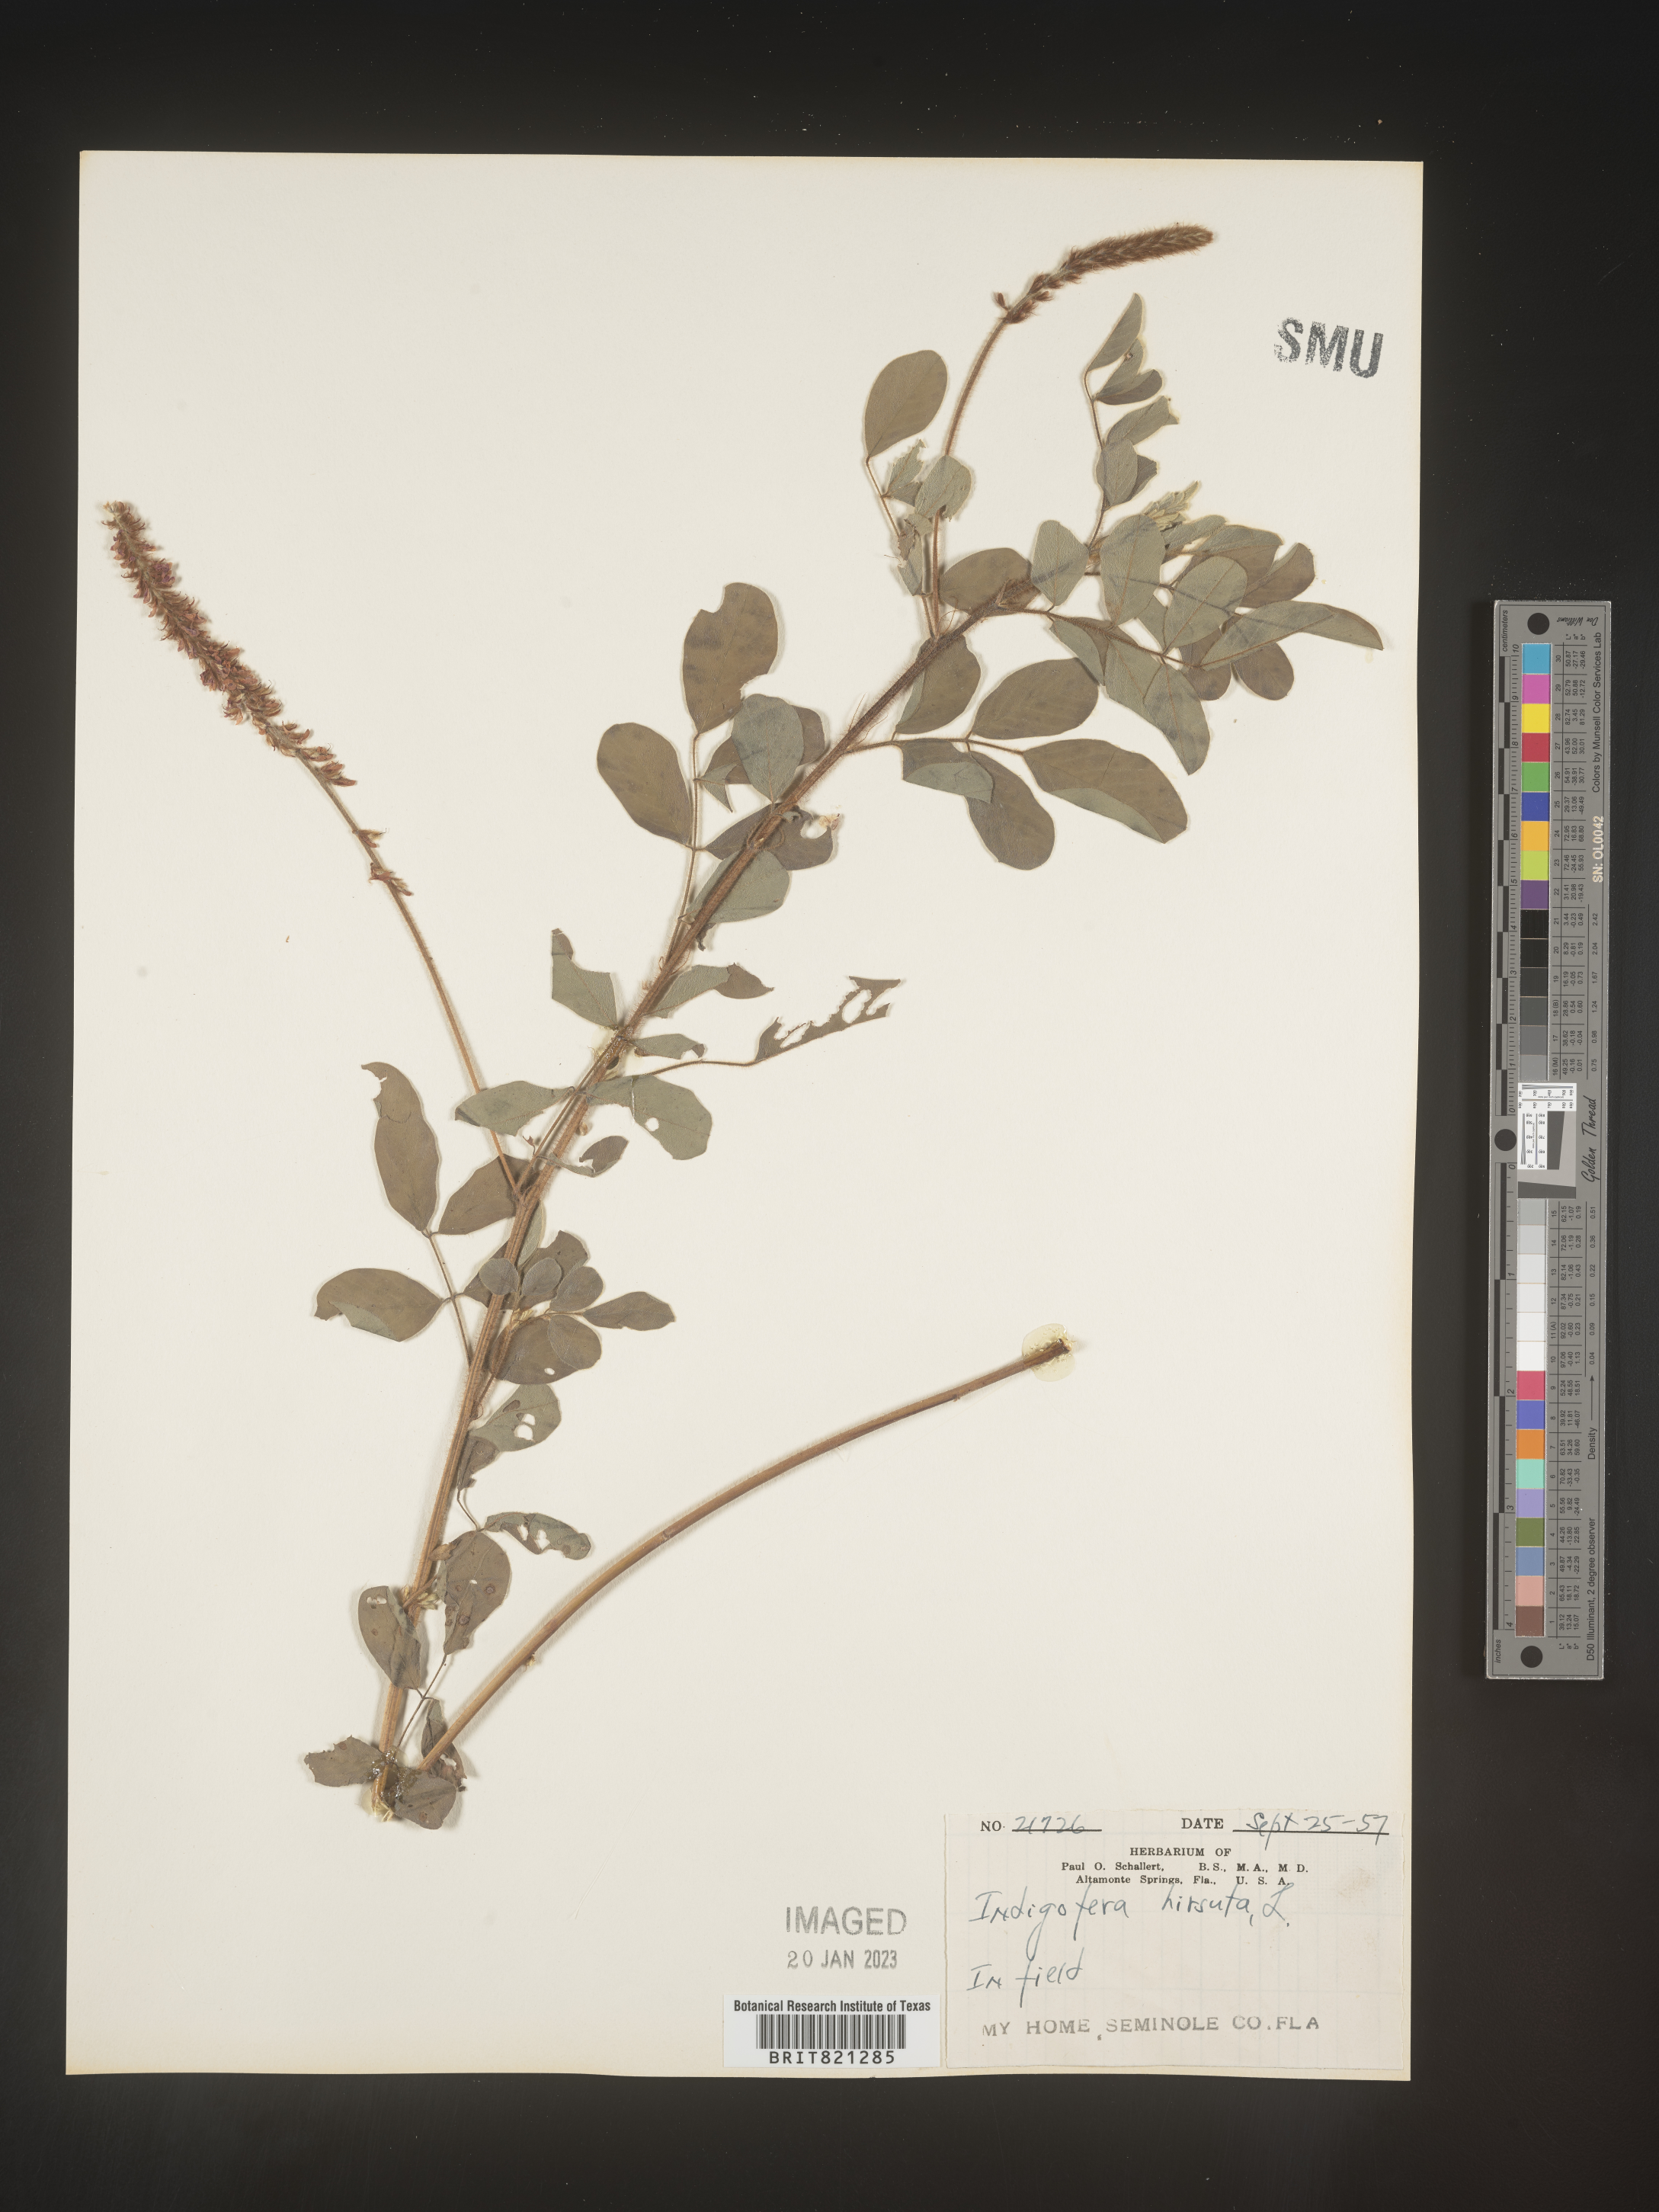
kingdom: Plantae
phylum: Tracheophyta
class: Magnoliopsida
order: Fabales
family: Fabaceae
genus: Indigofera
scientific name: Indigofera
